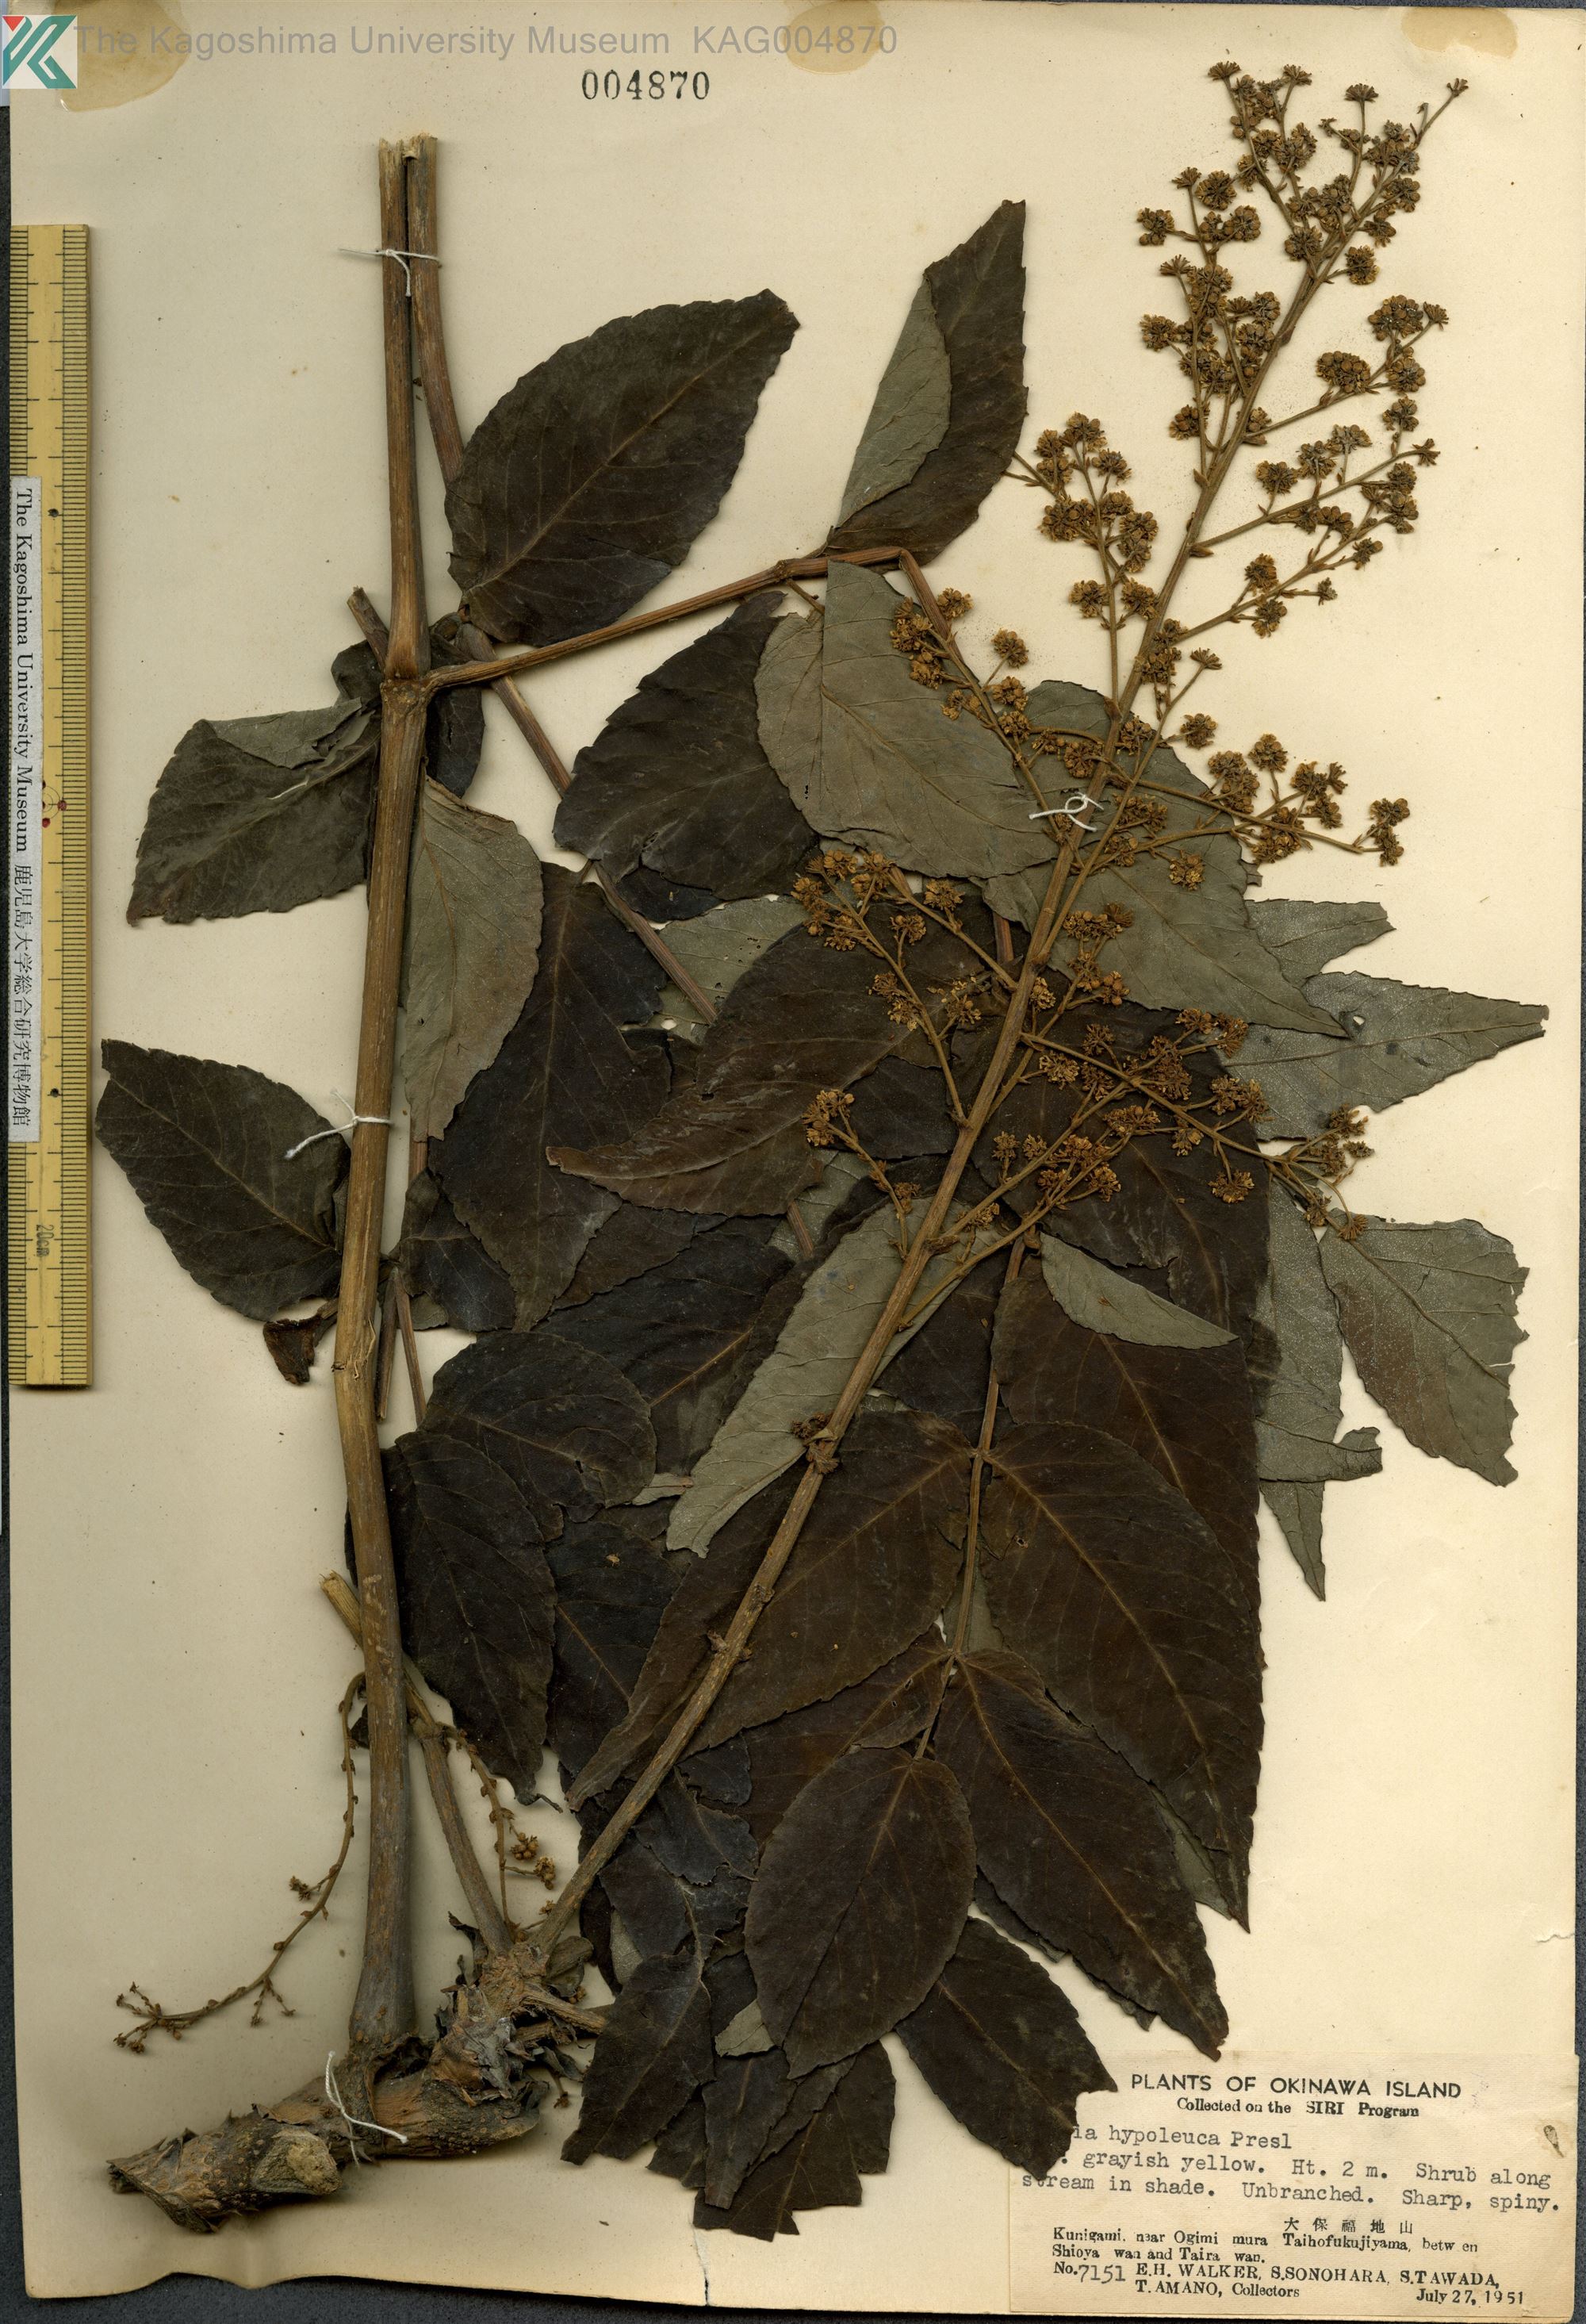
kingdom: Plantae
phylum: Tracheophyta
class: Magnoliopsida
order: Apiales
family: Araliaceae
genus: Aralia
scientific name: Aralia elata
